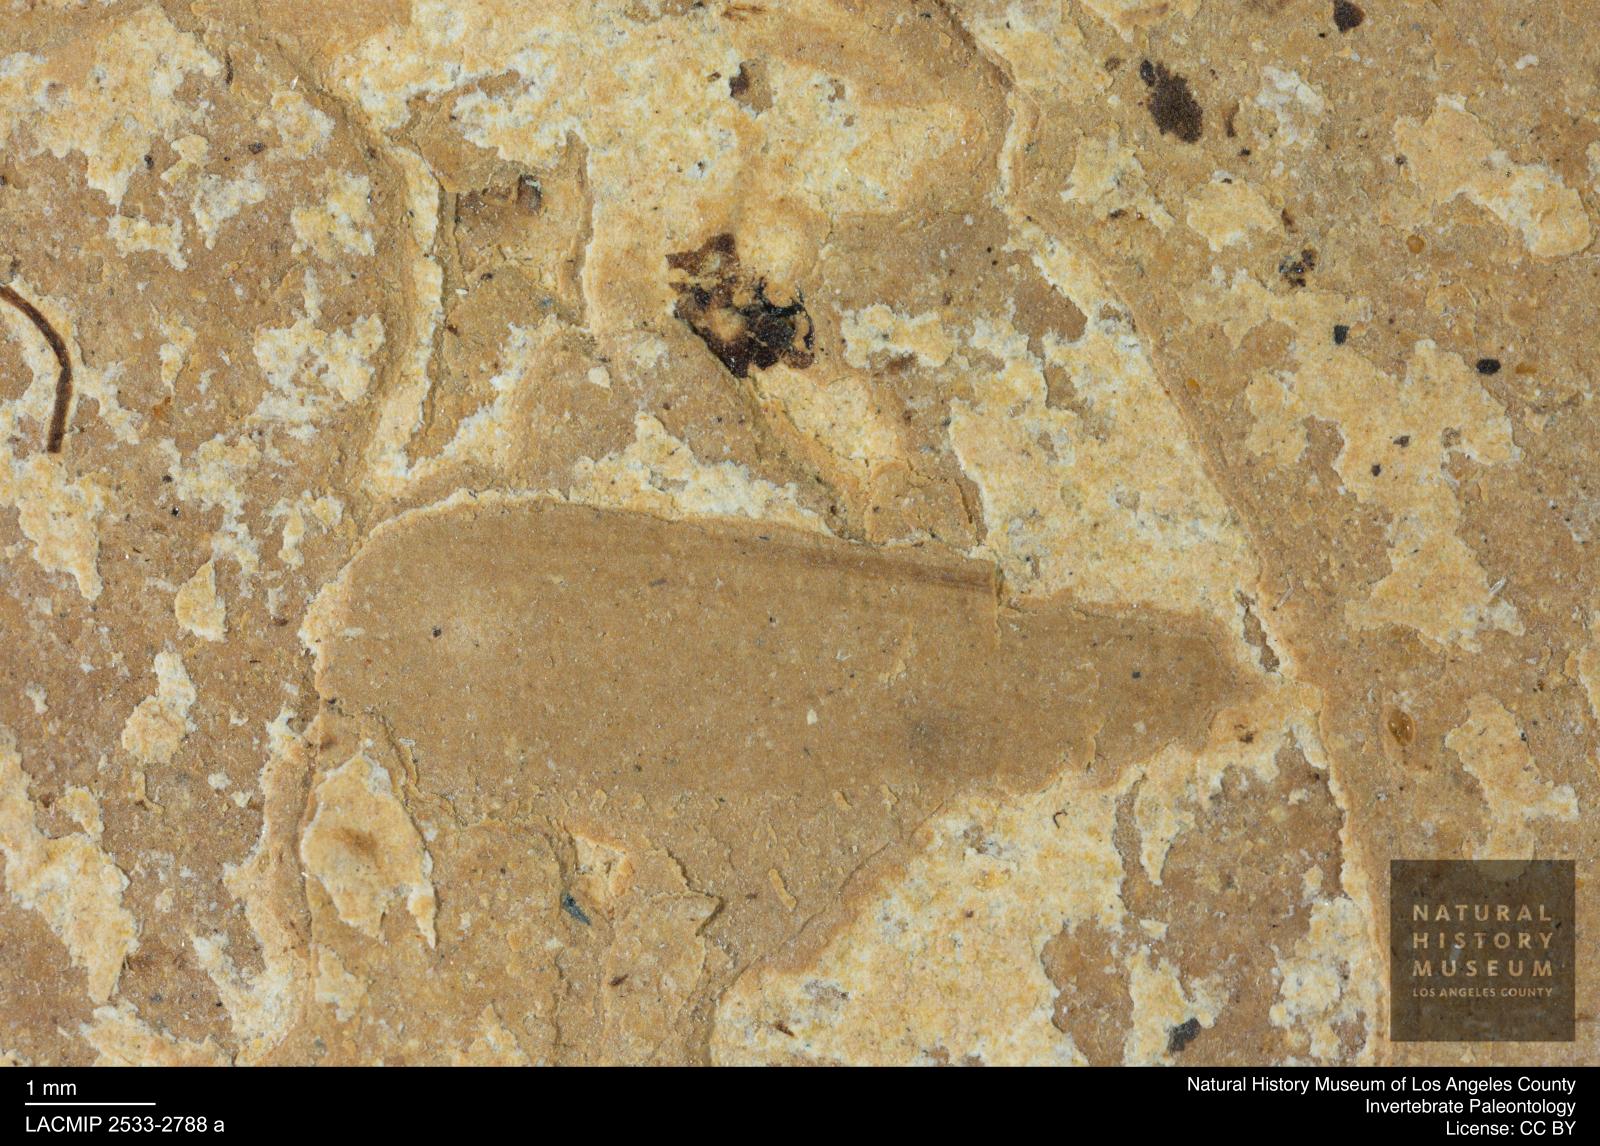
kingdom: Animalia
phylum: Arthropoda
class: Insecta
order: Blattodea
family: Kalotermitidae
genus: Kalotermes
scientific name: Kalotermes rhenanus
